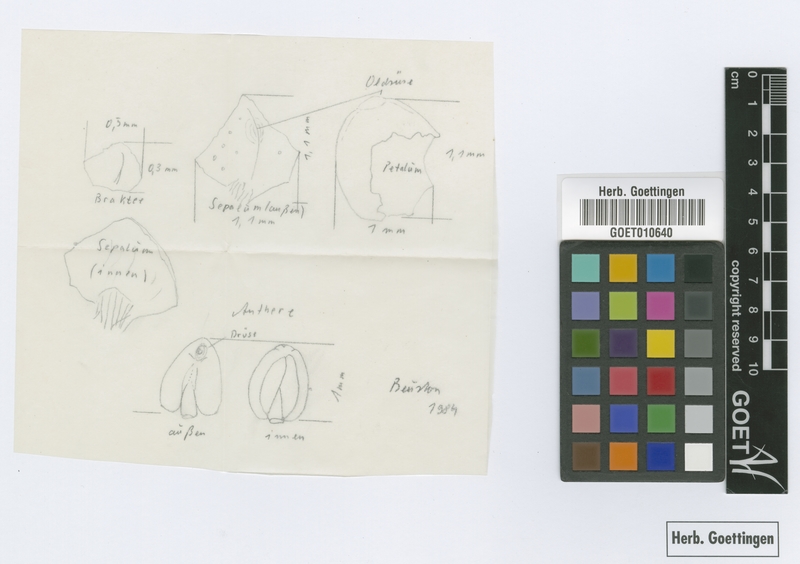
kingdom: Plantae
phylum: Tracheophyta
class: Magnoliopsida
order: Sapindales
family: Rutaceae
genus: Zanthoxylum
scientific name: Zanthoxylum phyllopterum
